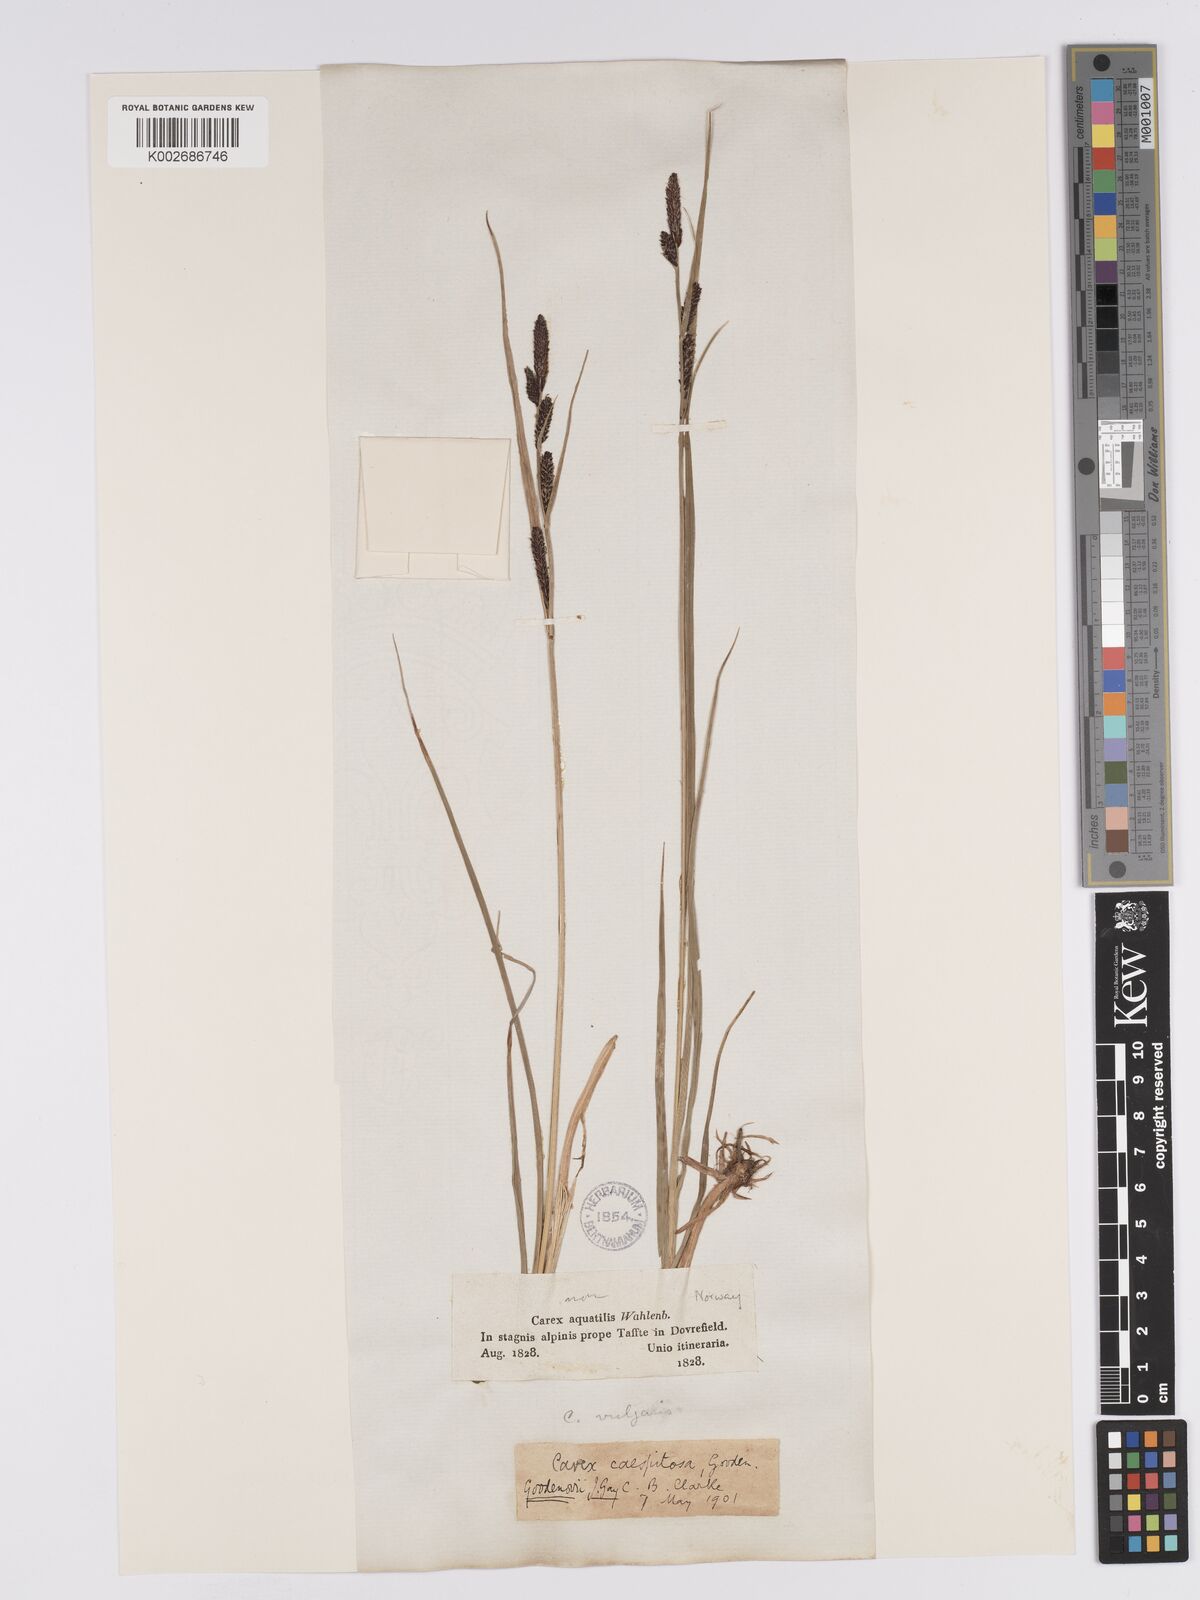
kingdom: Plantae
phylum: Tracheophyta
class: Liliopsida
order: Poales
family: Cyperaceae
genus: Carex
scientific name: Carex aquatilis
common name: Water sedge
